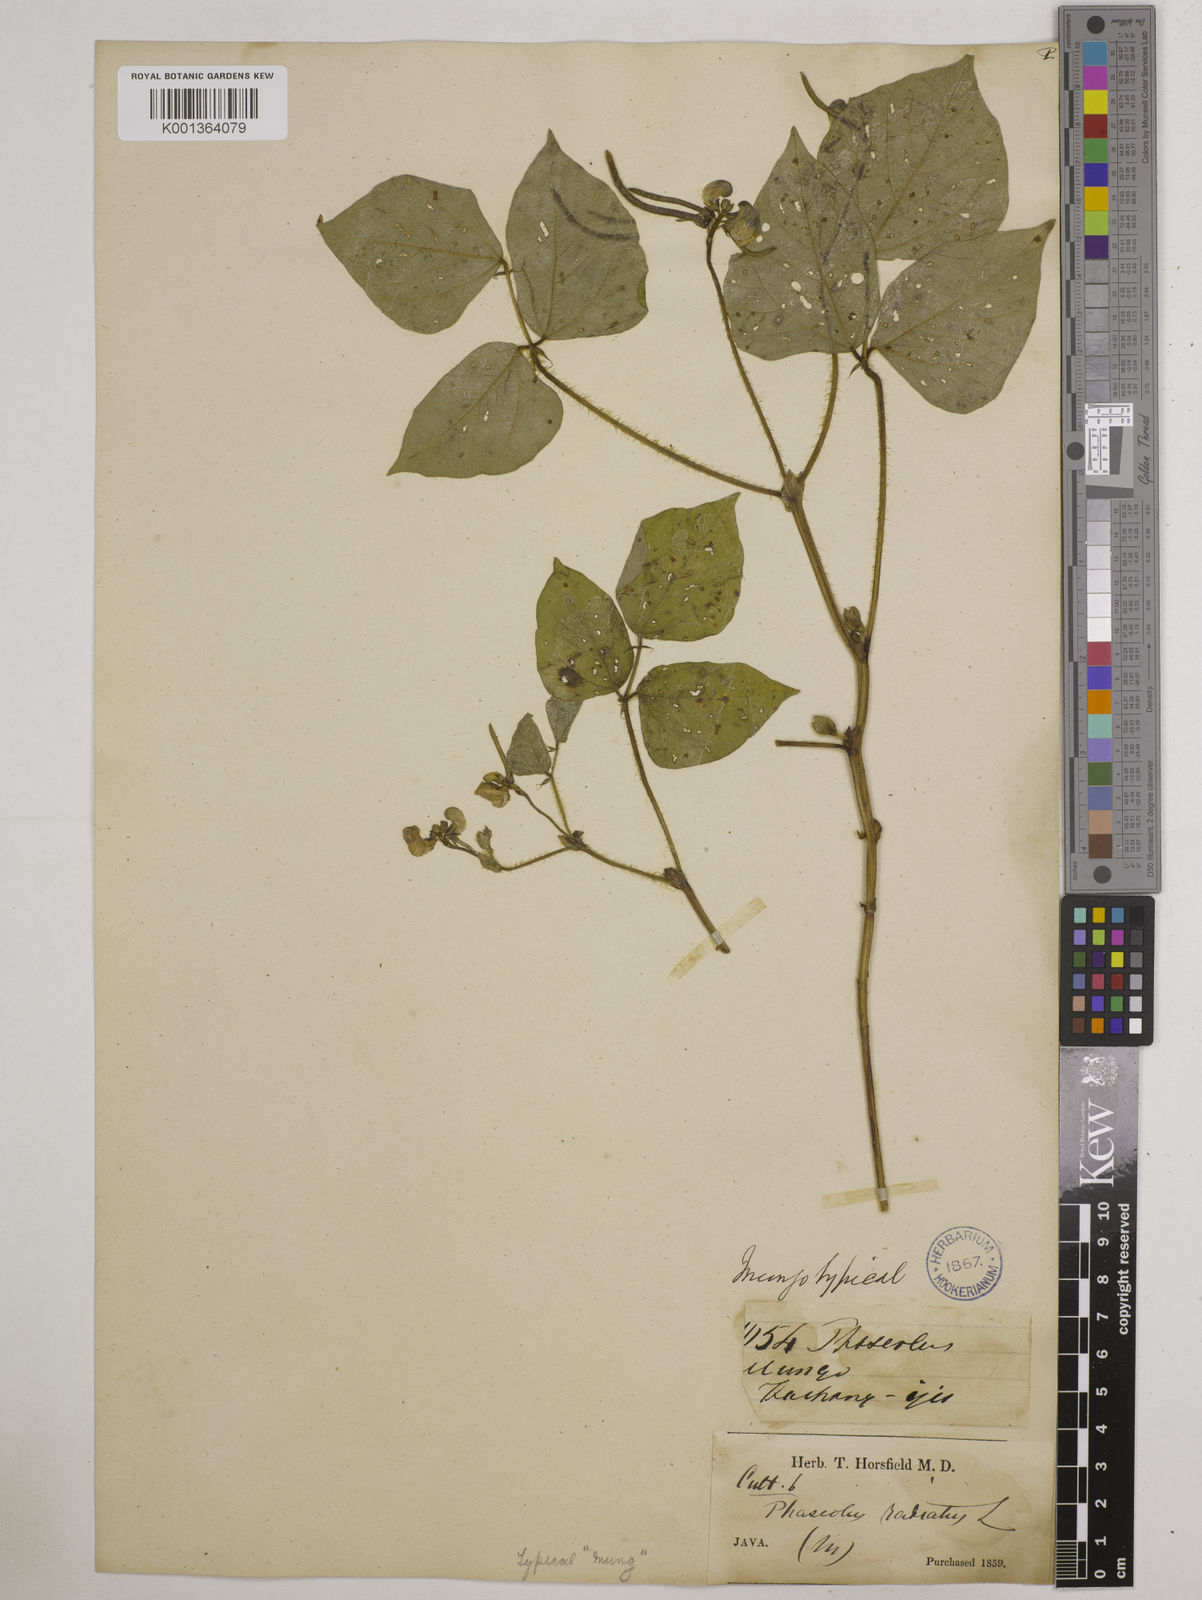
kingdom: Plantae
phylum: Tracheophyta
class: Magnoliopsida
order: Fabales
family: Fabaceae
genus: Vigna
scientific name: Vigna radiata
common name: Mung-bean
